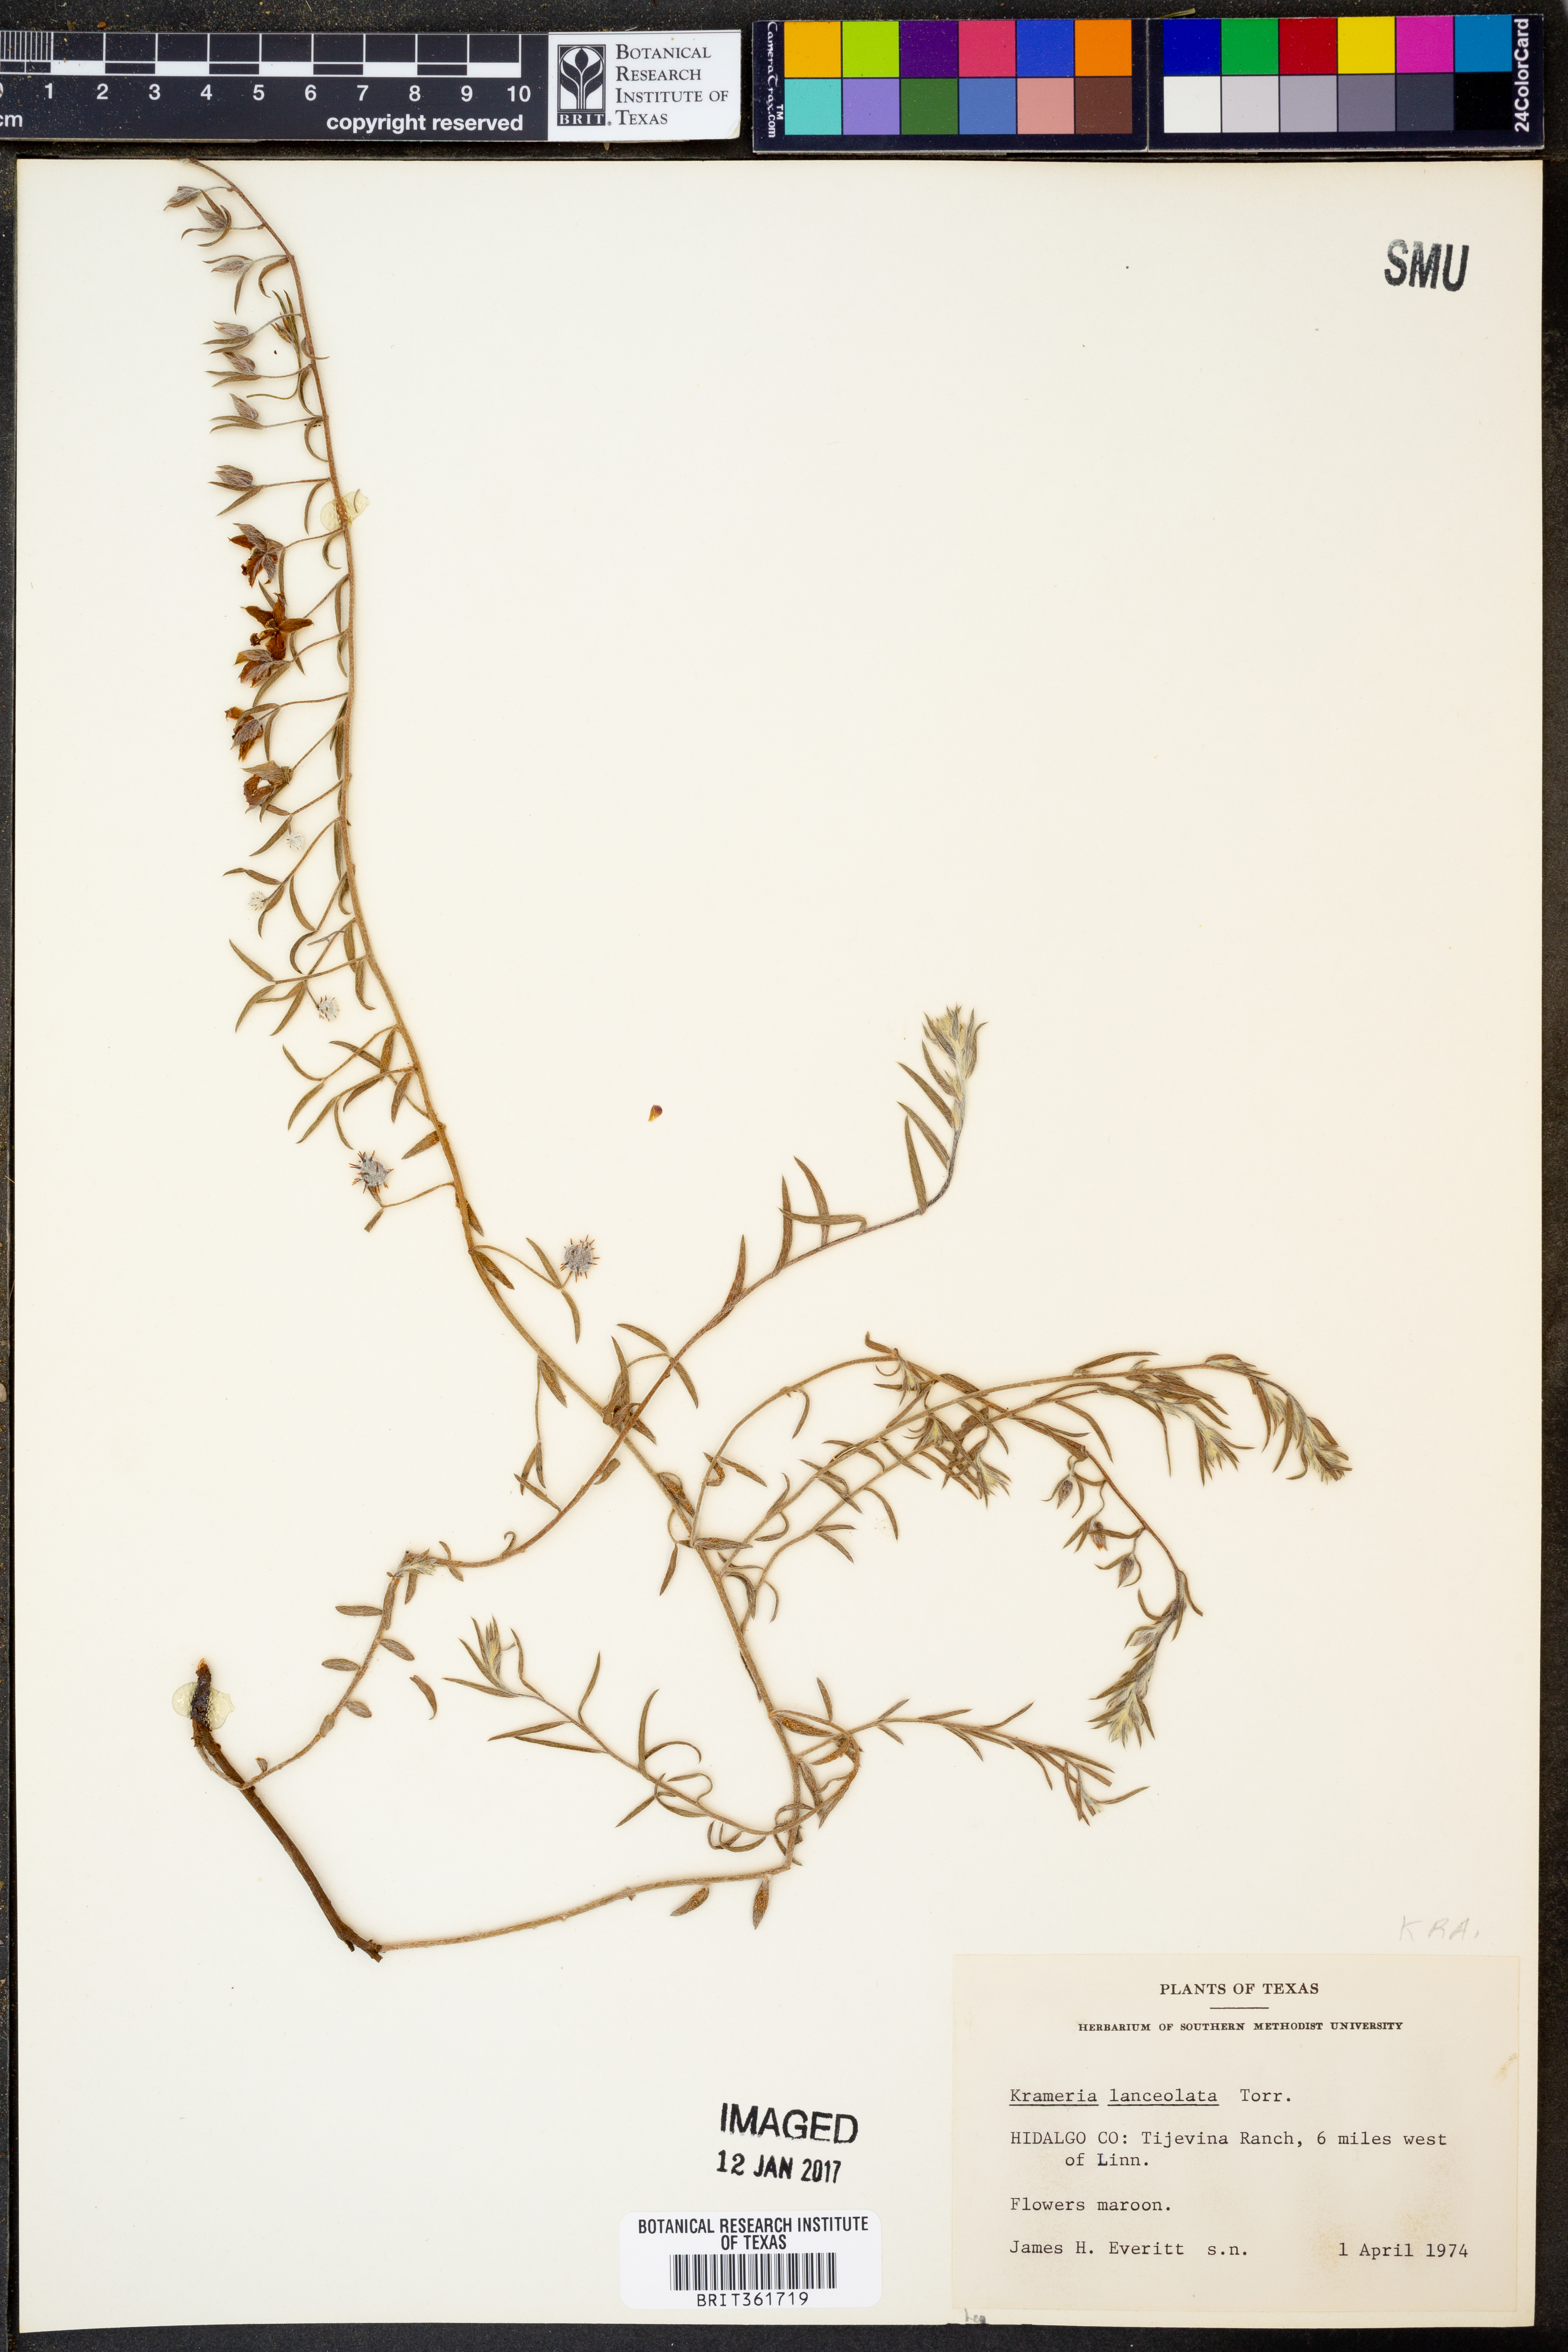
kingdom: Plantae
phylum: Tracheophyta
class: Magnoliopsida
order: Zygophyllales
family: Krameriaceae
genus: Krameria
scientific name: Krameria lanceolata
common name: Ratany
